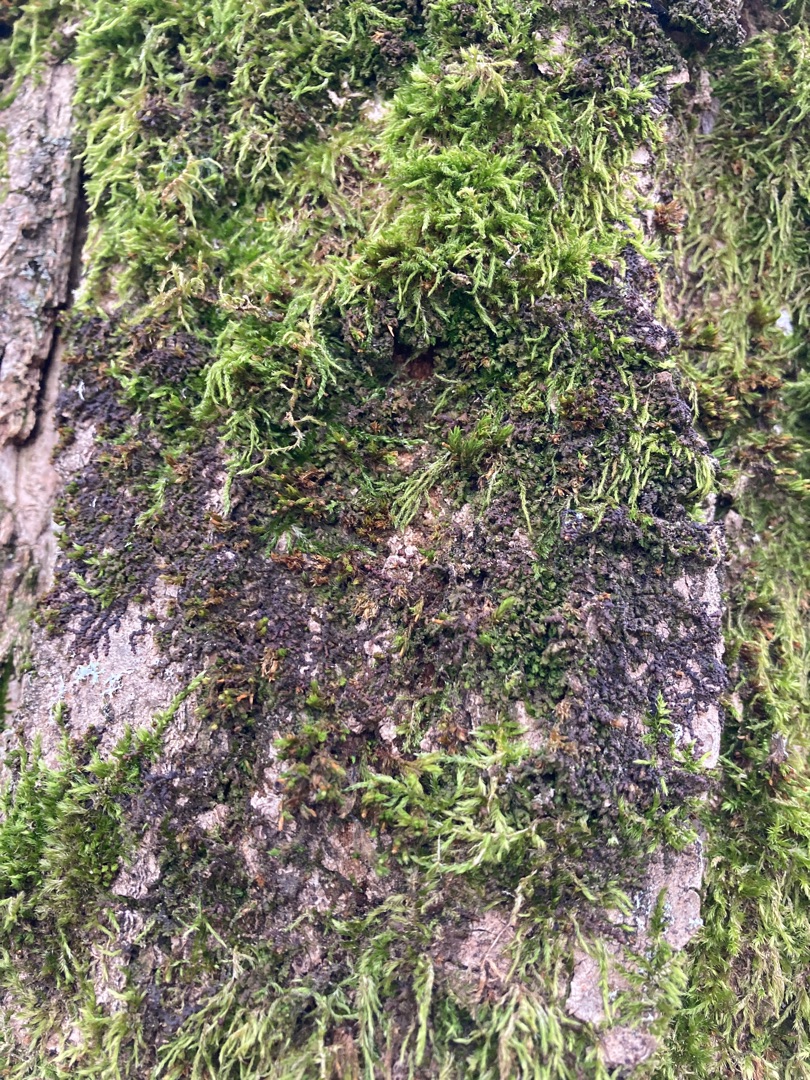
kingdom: Plantae
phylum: Marchantiophyta
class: Jungermanniopsida
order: Porellales
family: Frullaniaceae
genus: Frullania
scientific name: Frullania dilatata
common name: Mat bronzemos
